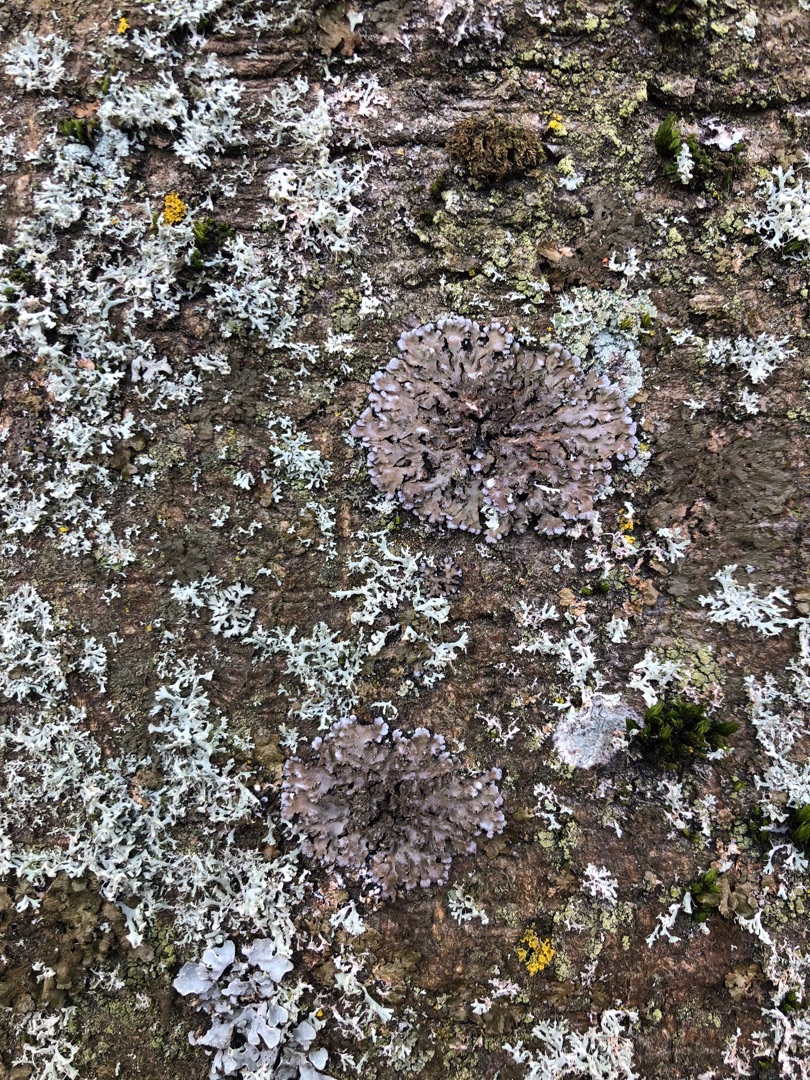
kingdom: Fungi
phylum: Ascomycota
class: Lecanoromycetes
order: Caliciales
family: Physciaceae
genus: Physconia
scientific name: Physconia
